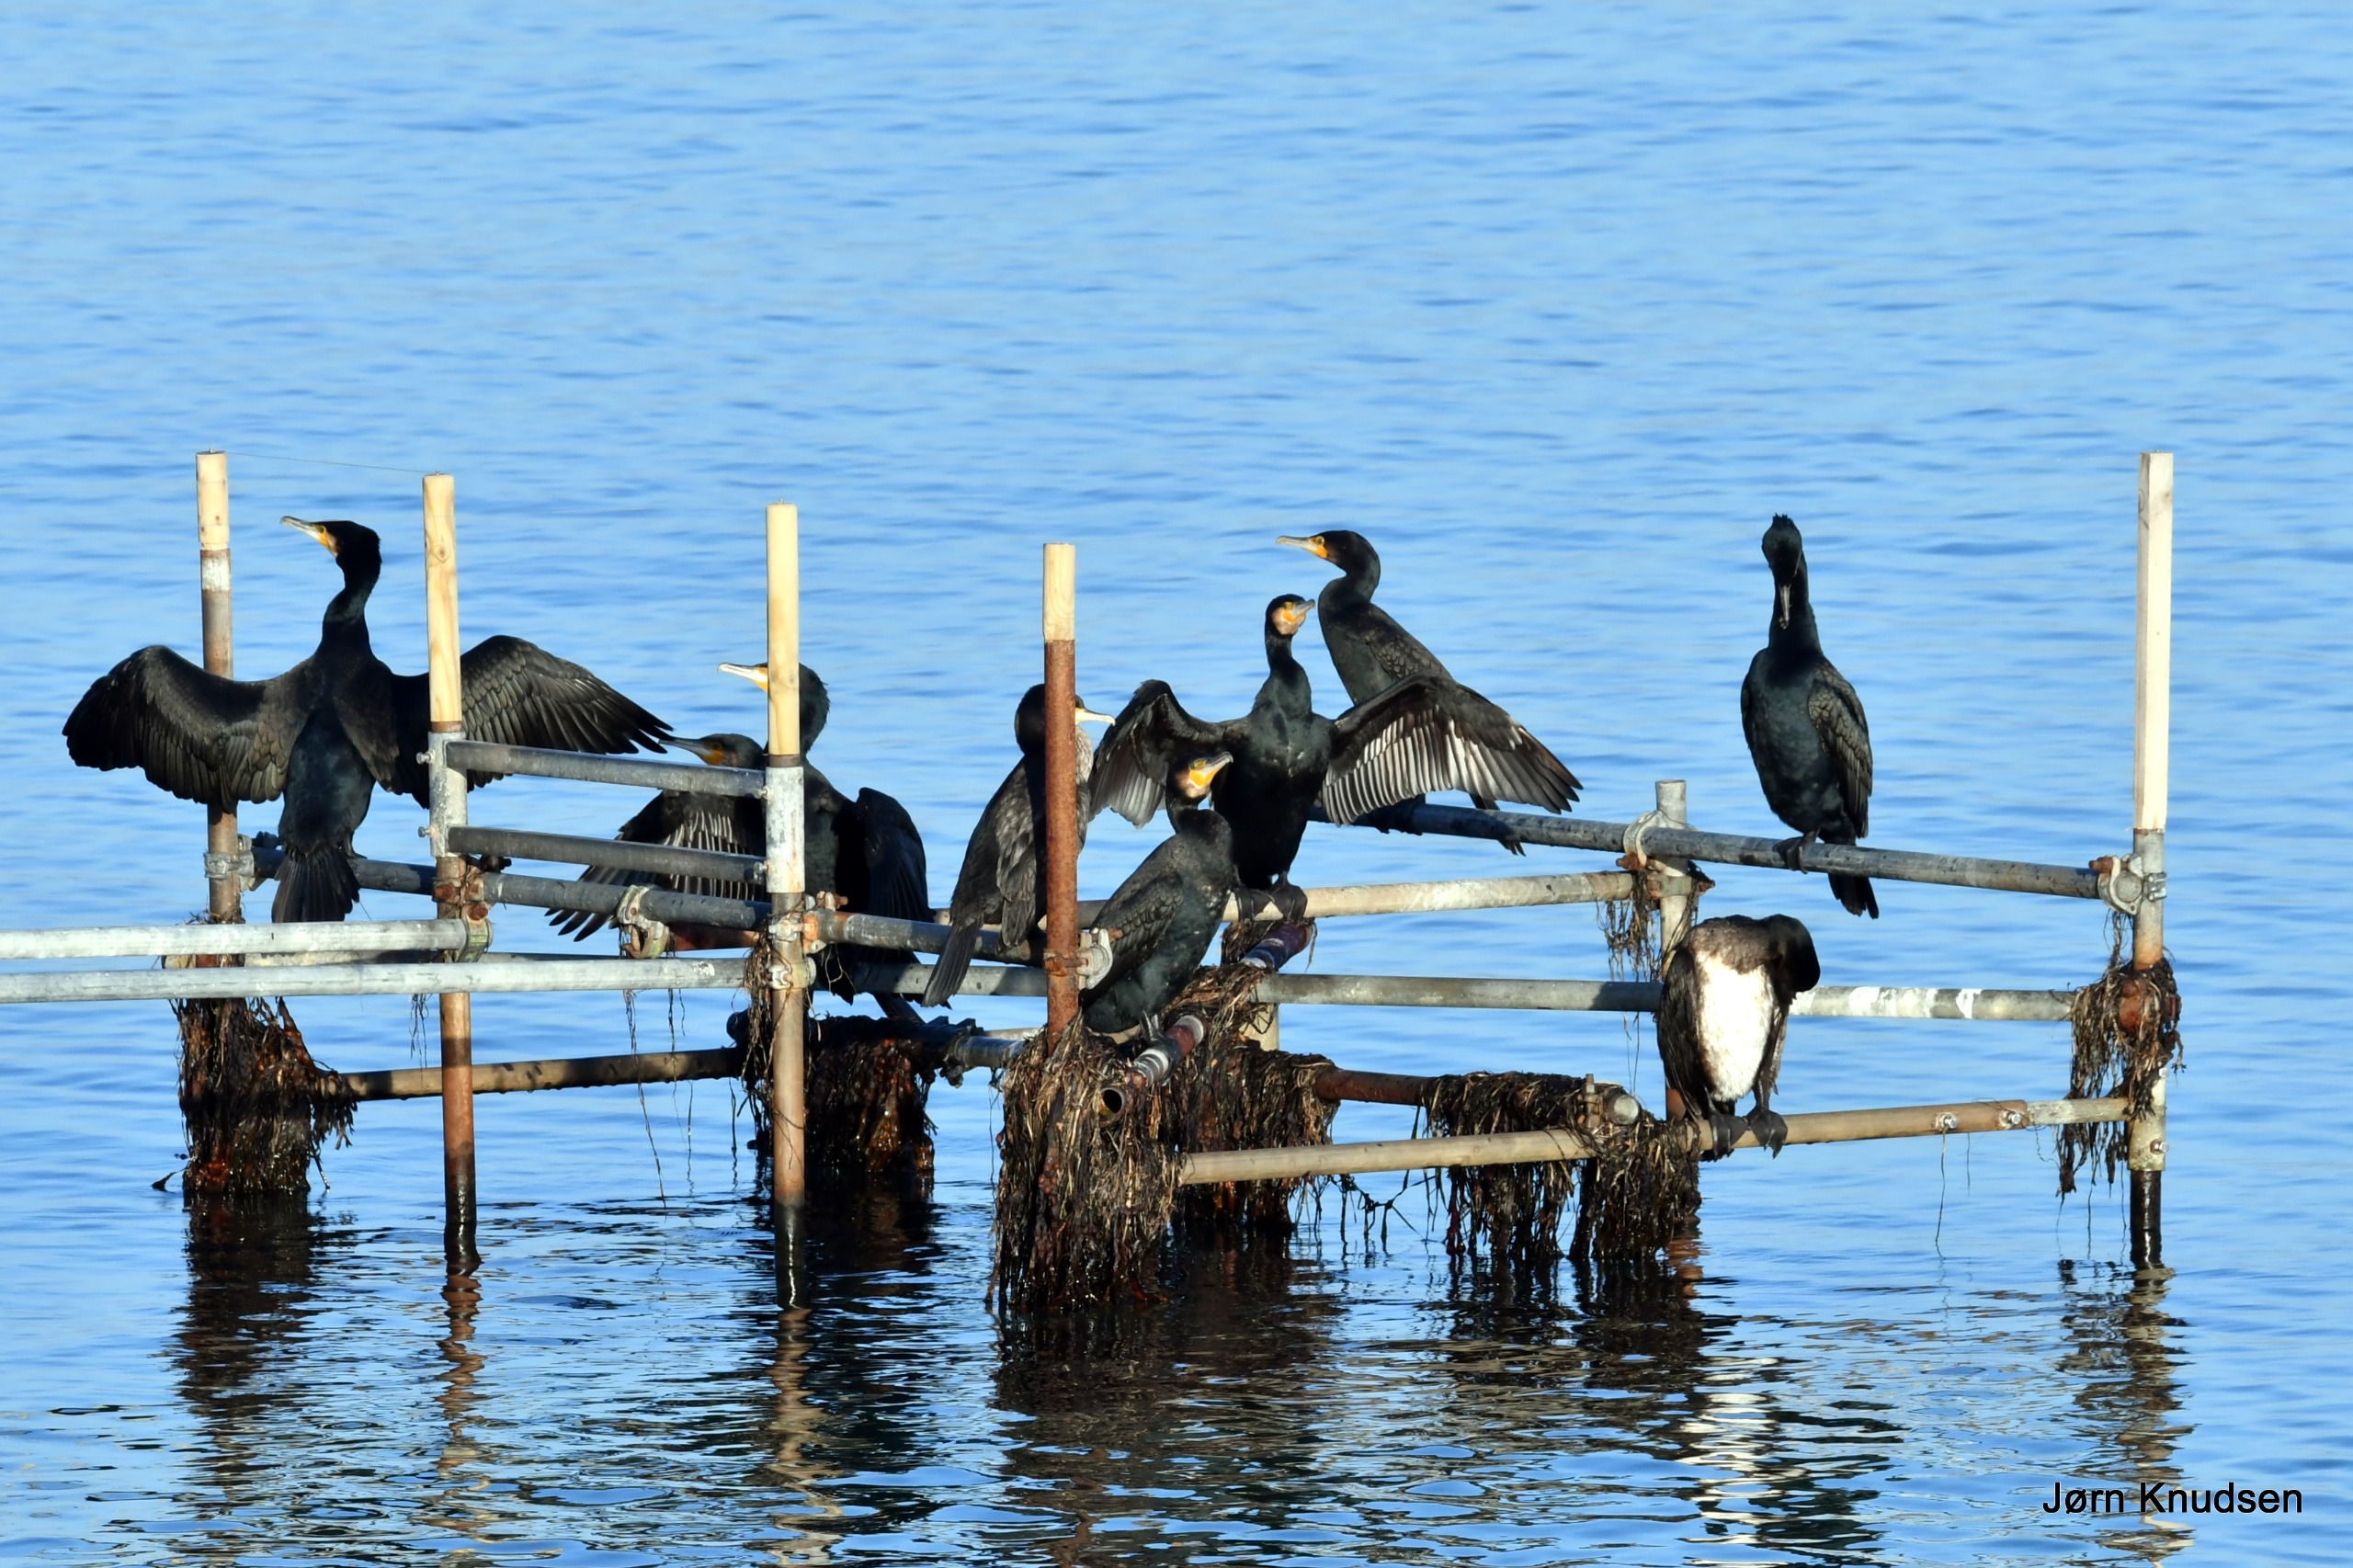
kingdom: Animalia
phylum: Chordata
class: Aves
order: Suliformes
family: Phalacrocoracidae
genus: Phalacrocorax
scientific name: Phalacrocorax carbo
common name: Skarv
